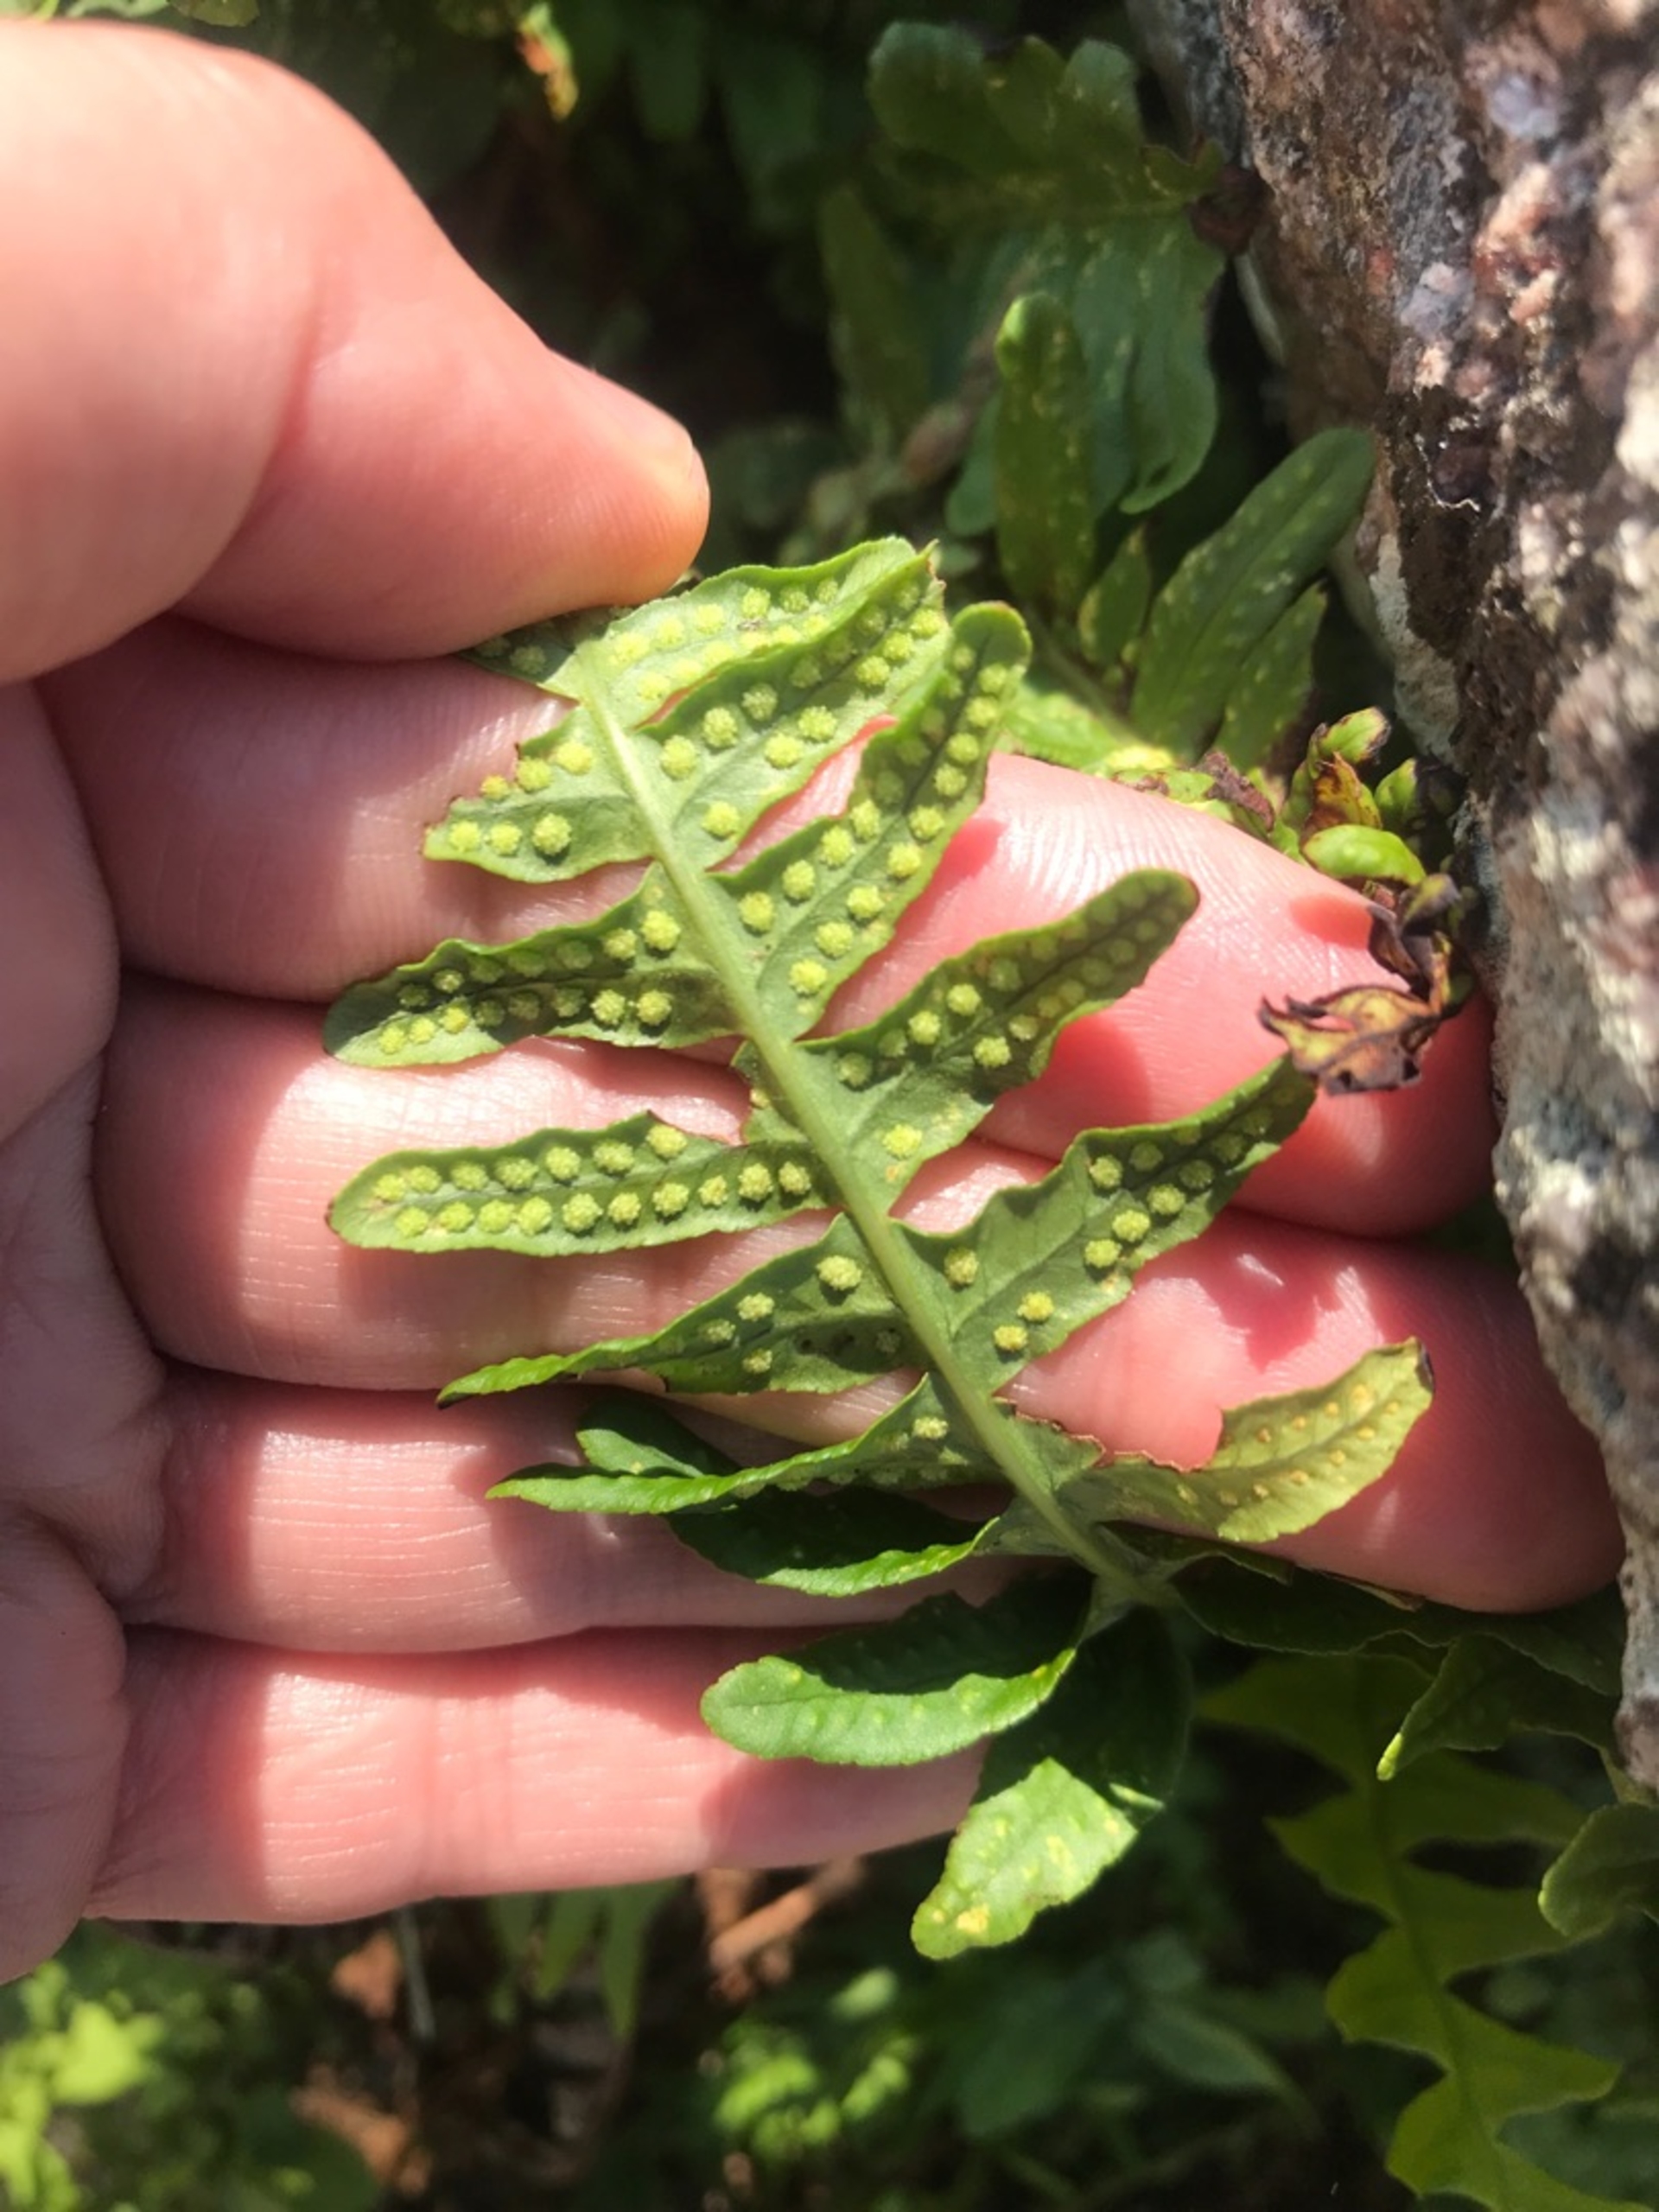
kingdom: Plantae
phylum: Tracheophyta
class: Polypodiopsida
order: Polypodiales
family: Polypodiaceae
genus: Polypodium
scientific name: Polypodium vulgare
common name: Almindelig engelsød
